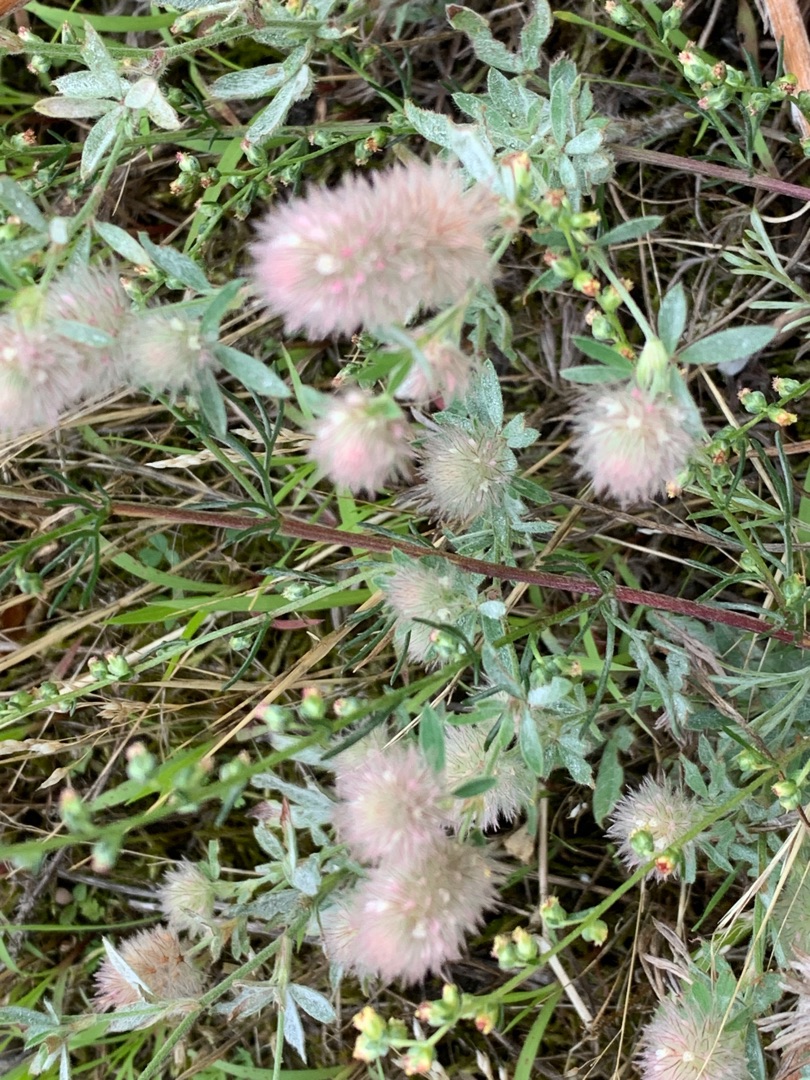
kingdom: Plantae
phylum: Tracheophyta
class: Magnoliopsida
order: Fabales
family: Fabaceae
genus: Trifolium
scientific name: Trifolium arvense
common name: Hare-kløver
